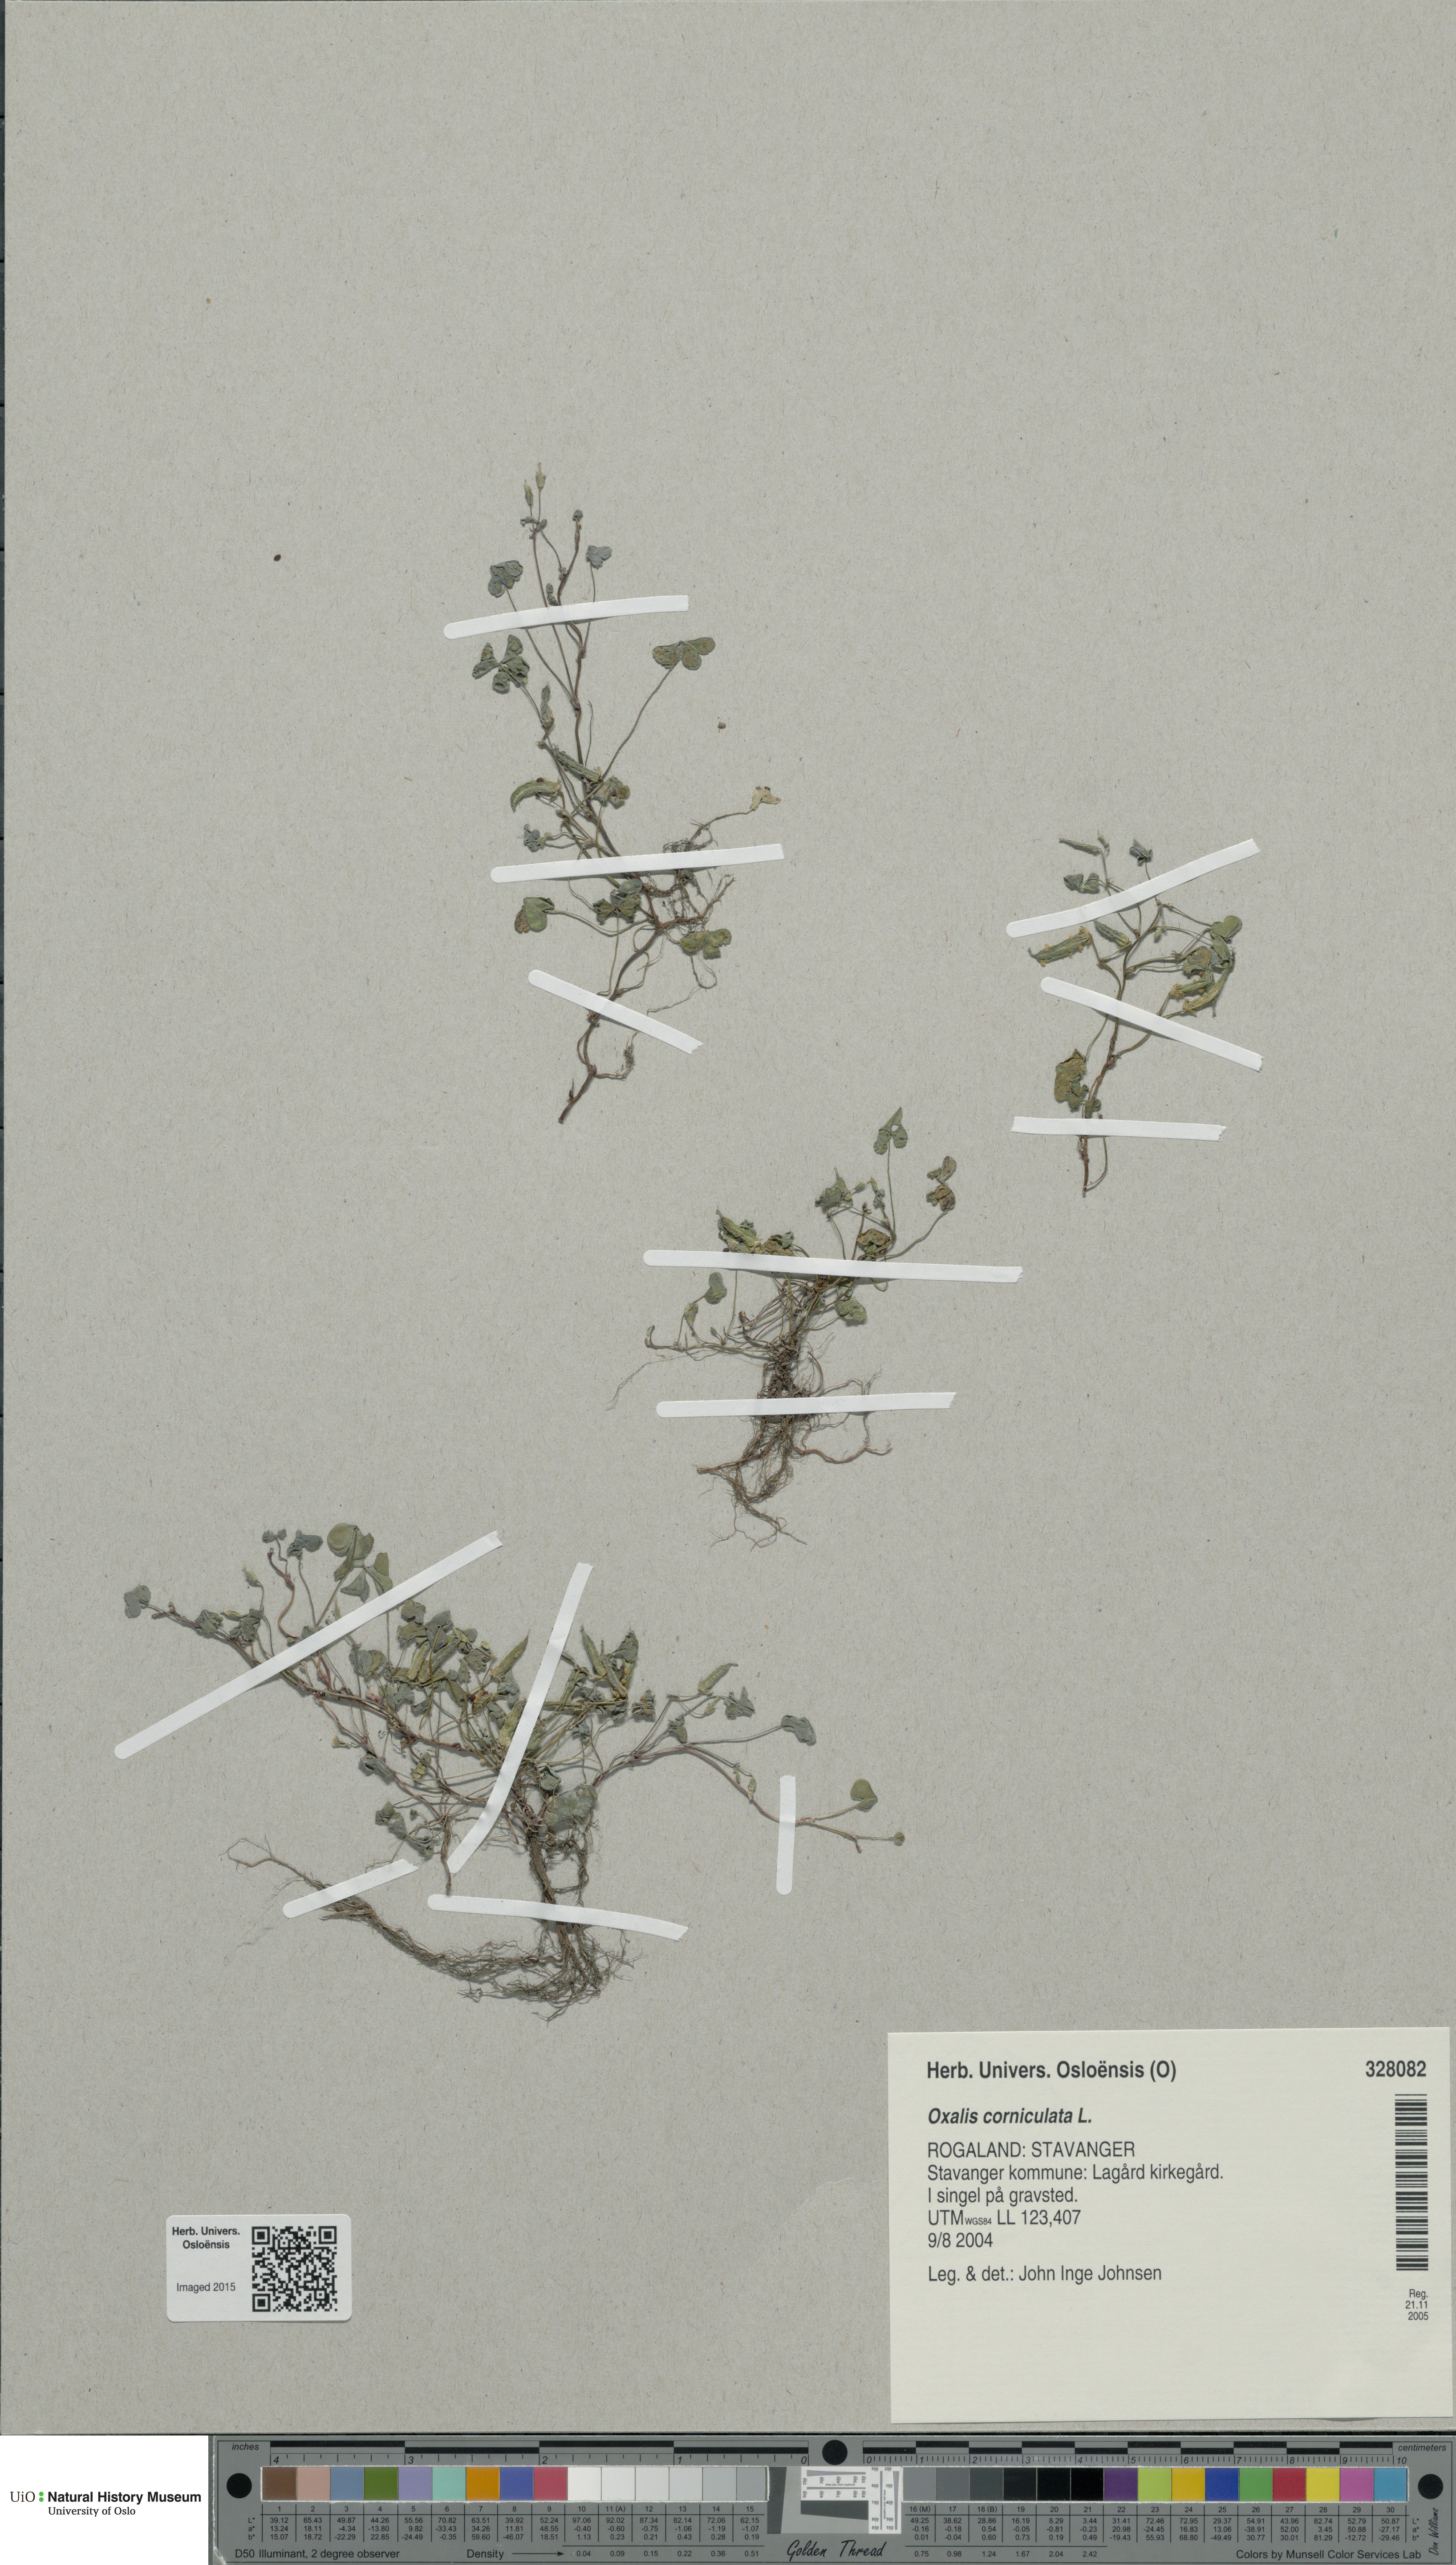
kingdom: Plantae
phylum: Tracheophyta
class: Magnoliopsida
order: Oxalidales
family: Oxalidaceae
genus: Oxalis
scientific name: Oxalis corniculata
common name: Procumbent yellow-sorrel
